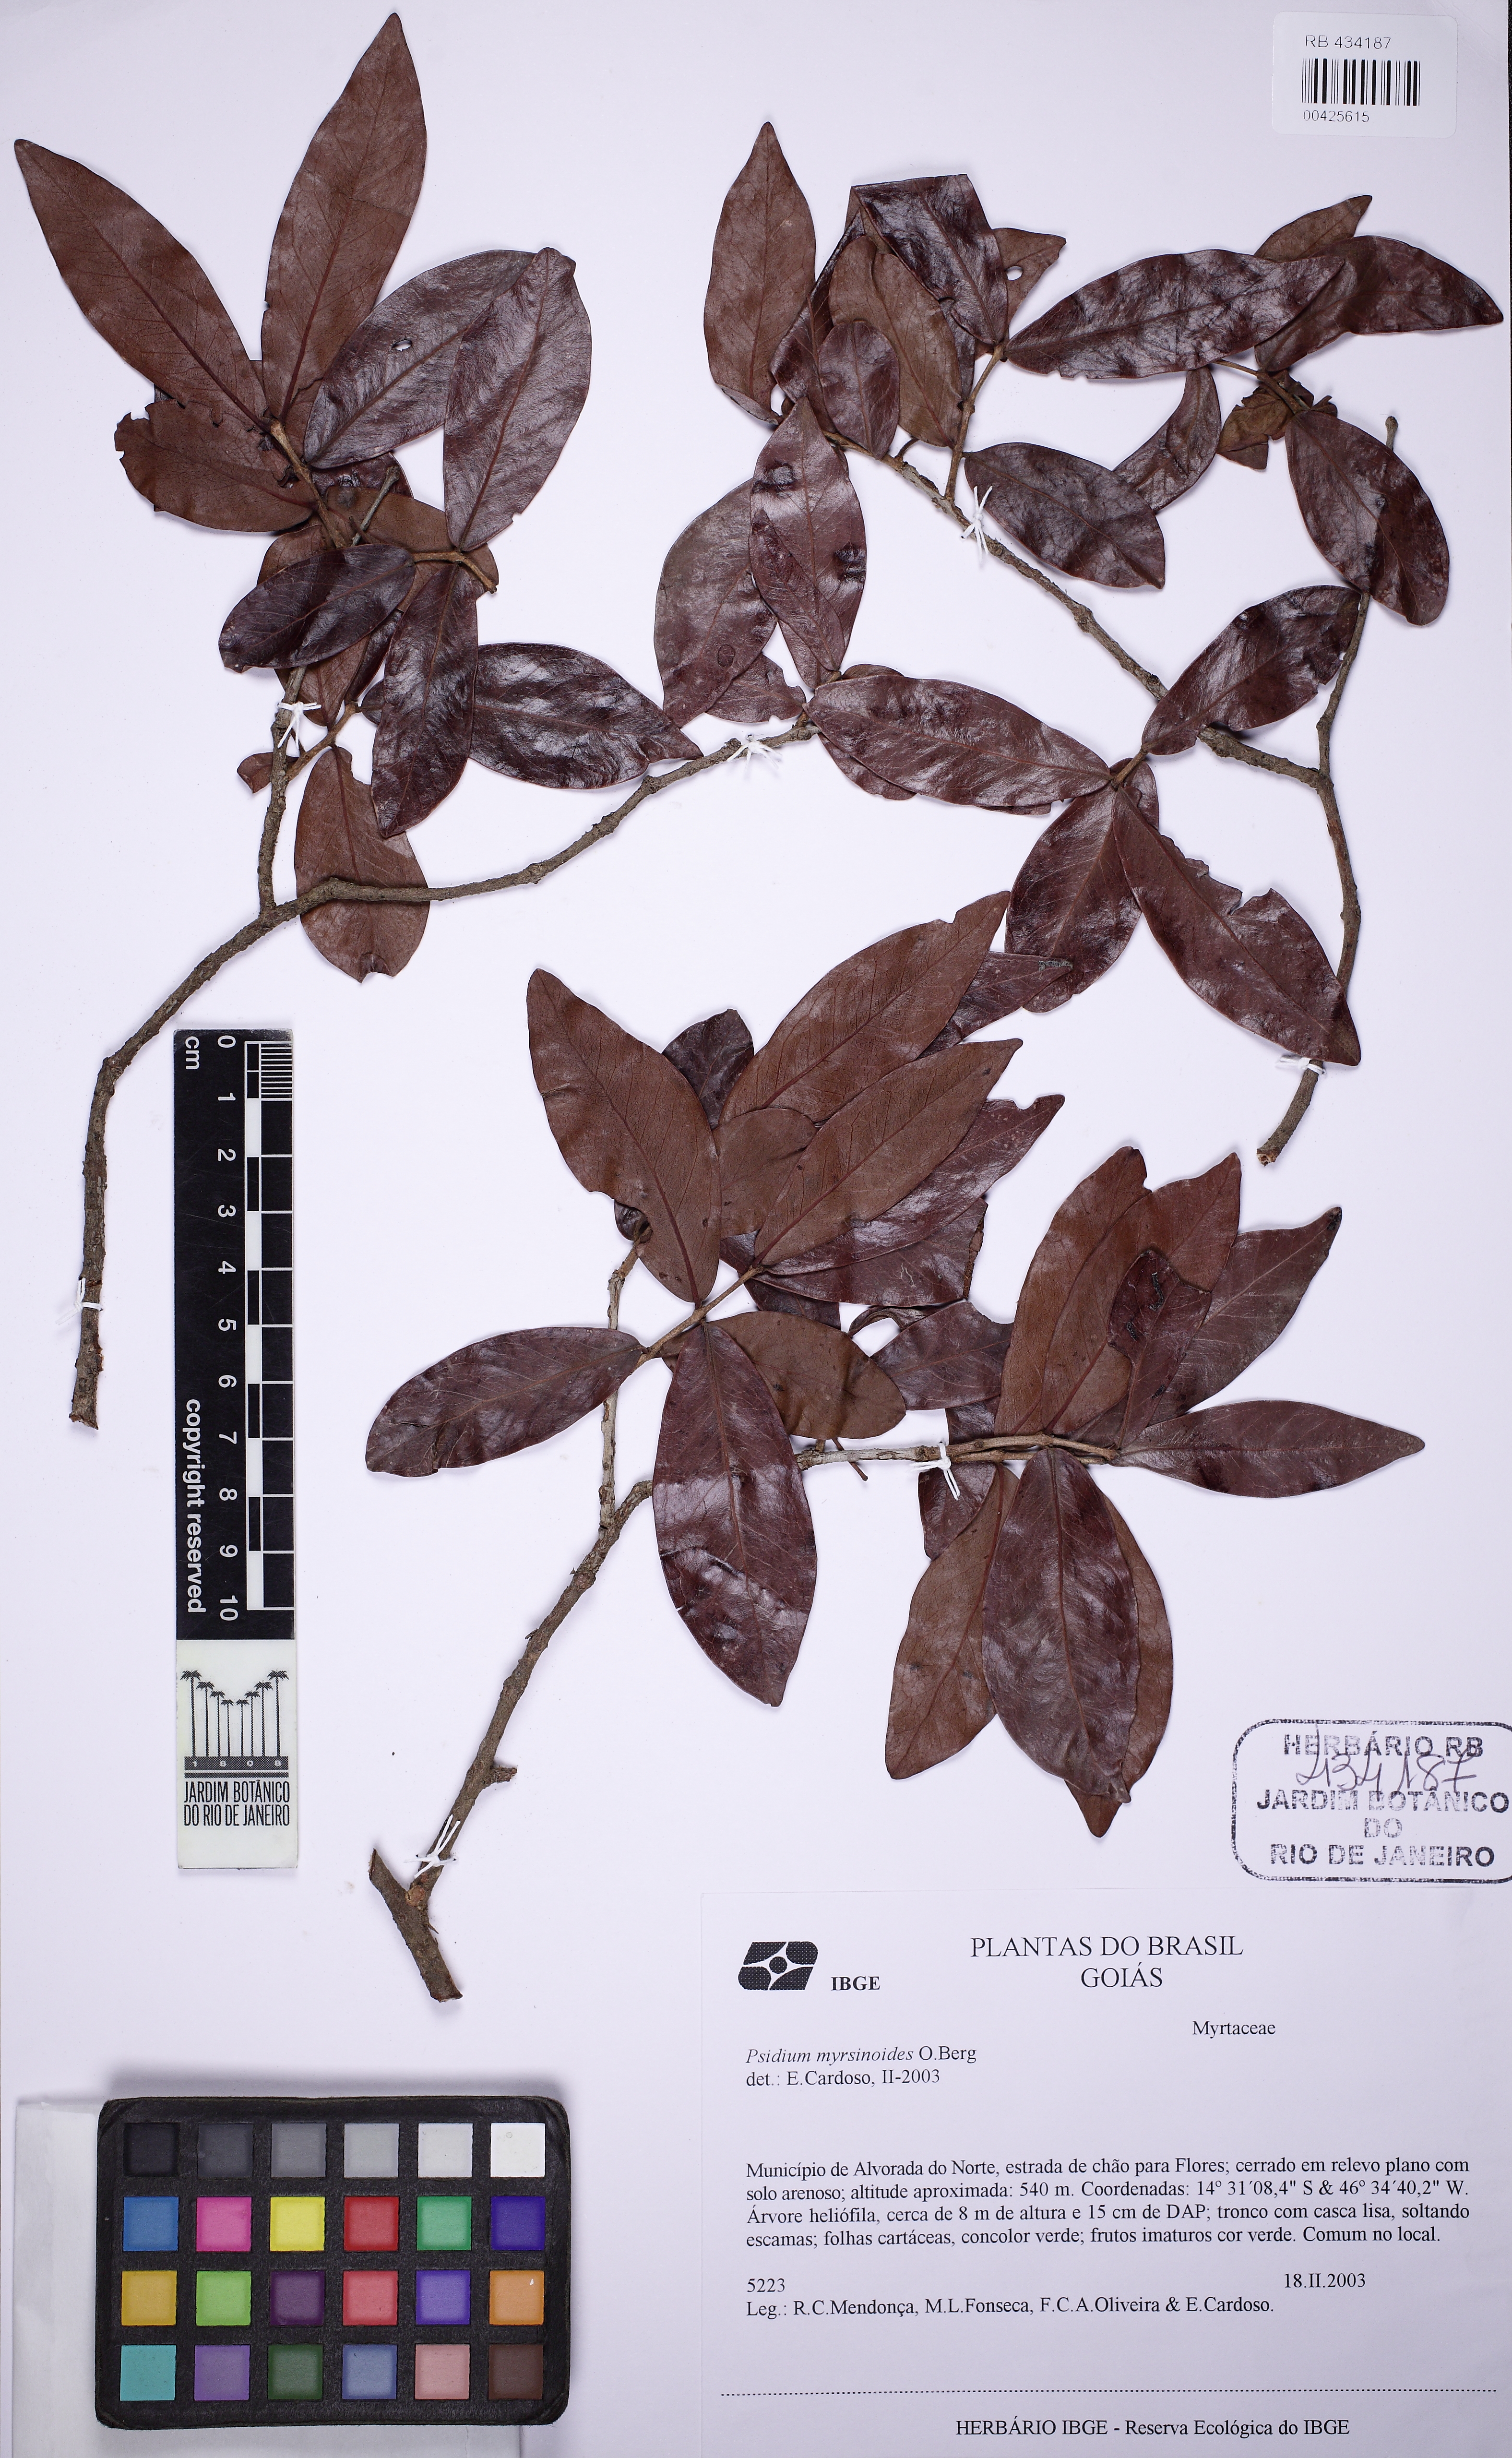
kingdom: Plantae
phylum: Tracheophyta
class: Magnoliopsida
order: Myrtales
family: Myrtaceae
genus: Psidium
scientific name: Psidium myrtoides
